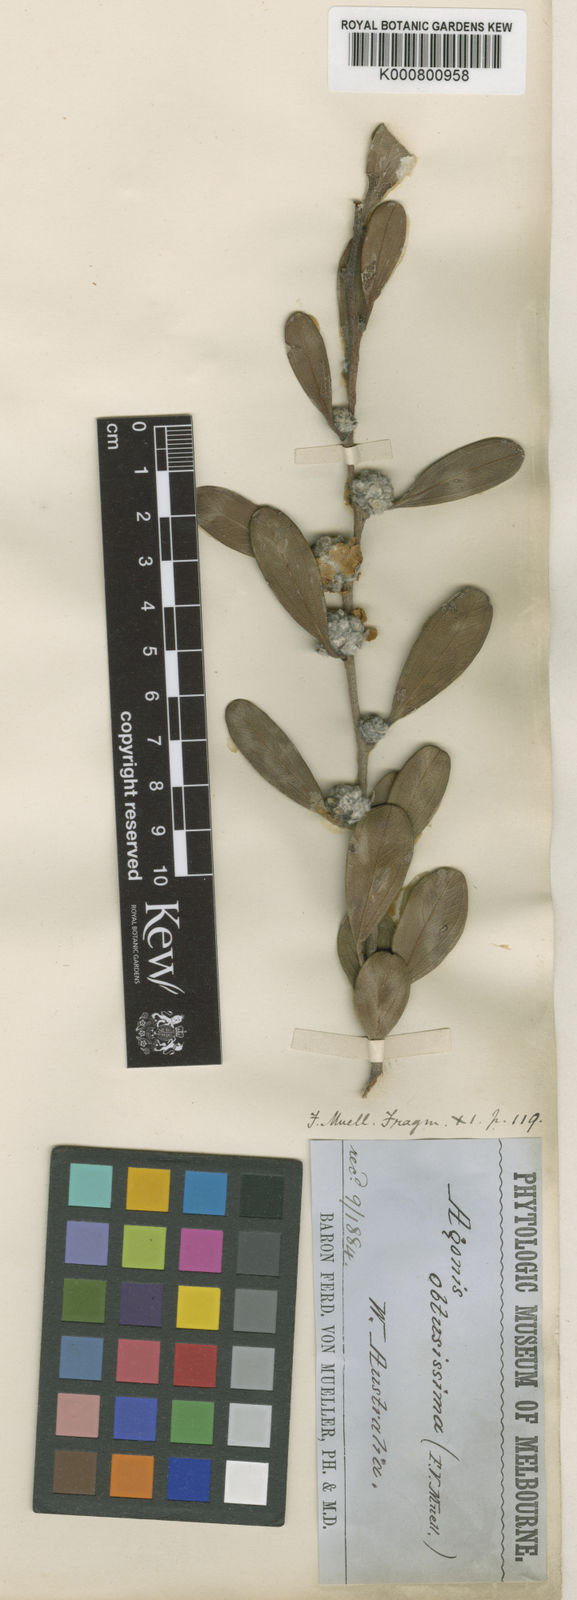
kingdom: Plantae
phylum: Tracheophyta
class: Magnoliopsida
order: Myrtales
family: Myrtaceae
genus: Agonis
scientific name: Agonis baxteri
